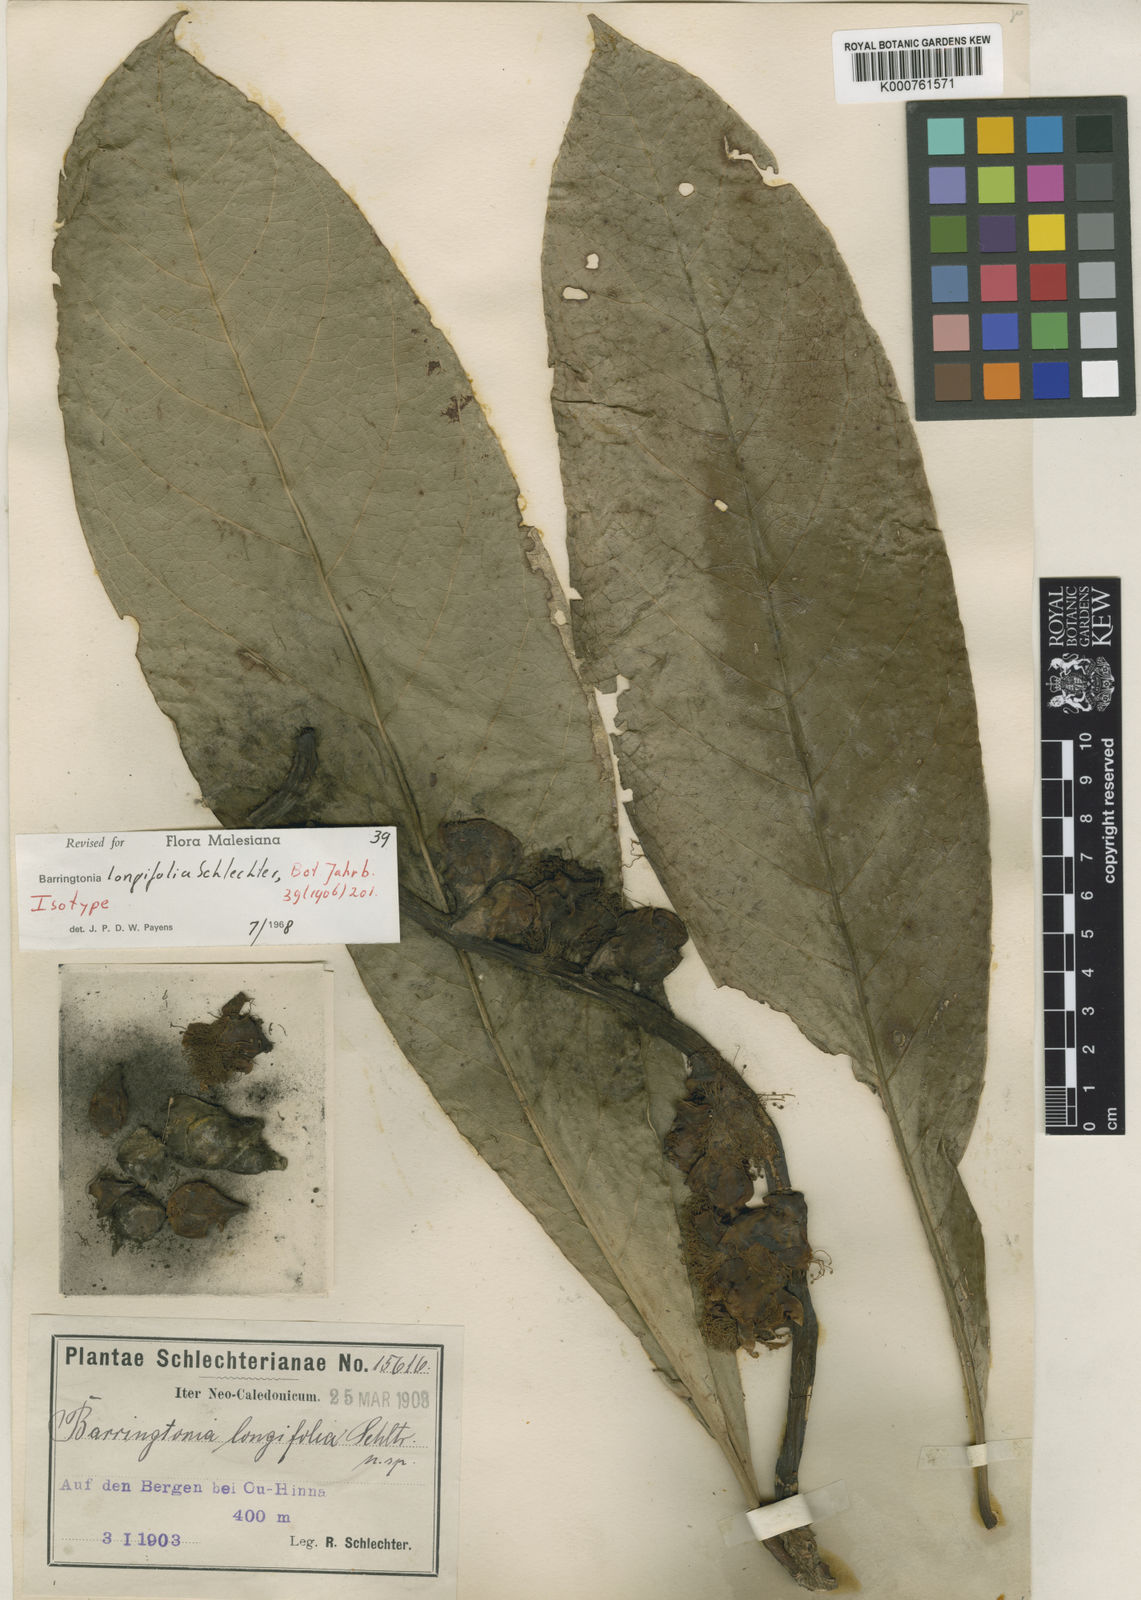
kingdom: Plantae
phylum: Tracheophyta
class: Magnoliopsida
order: Ericales
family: Lecythidaceae
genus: Barringtonia
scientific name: Barringtonia longifolia
